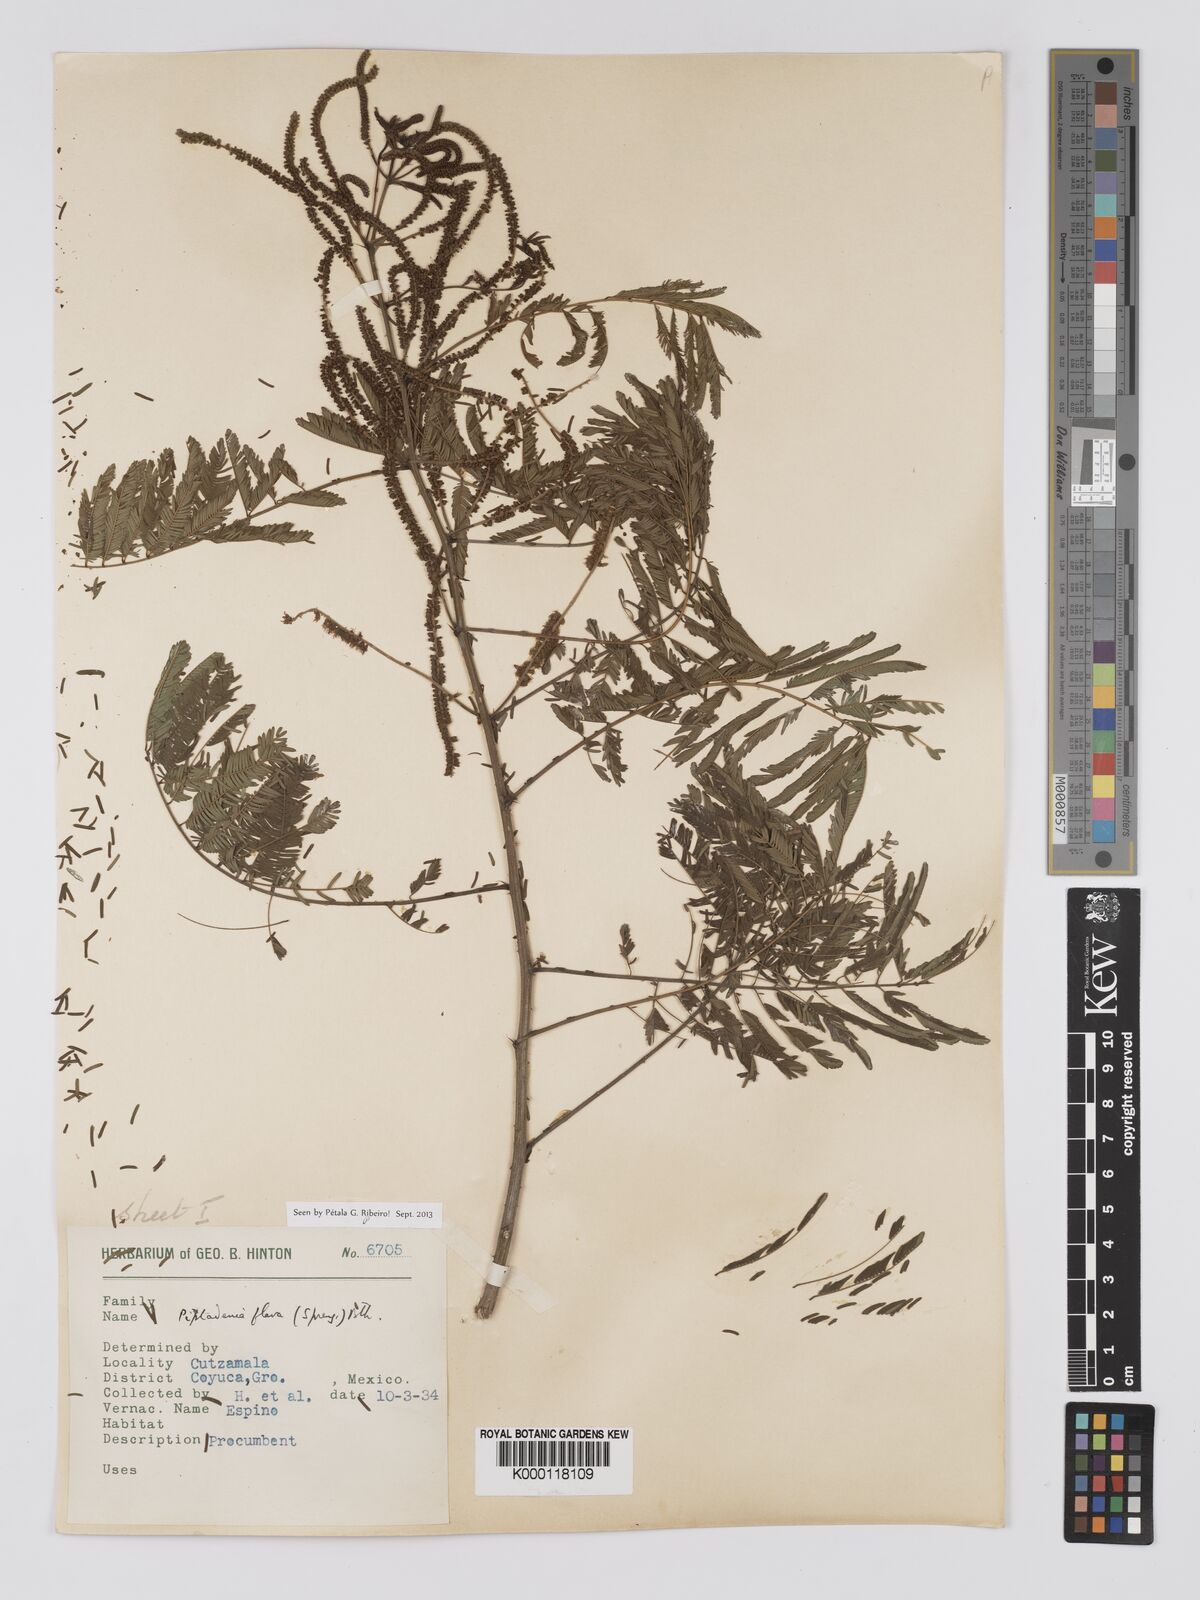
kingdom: Plantae
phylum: Tracheophyta
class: Magnoliopsida
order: Fabales
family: Fabaceae
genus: Piptadenia
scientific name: Piptadenia
